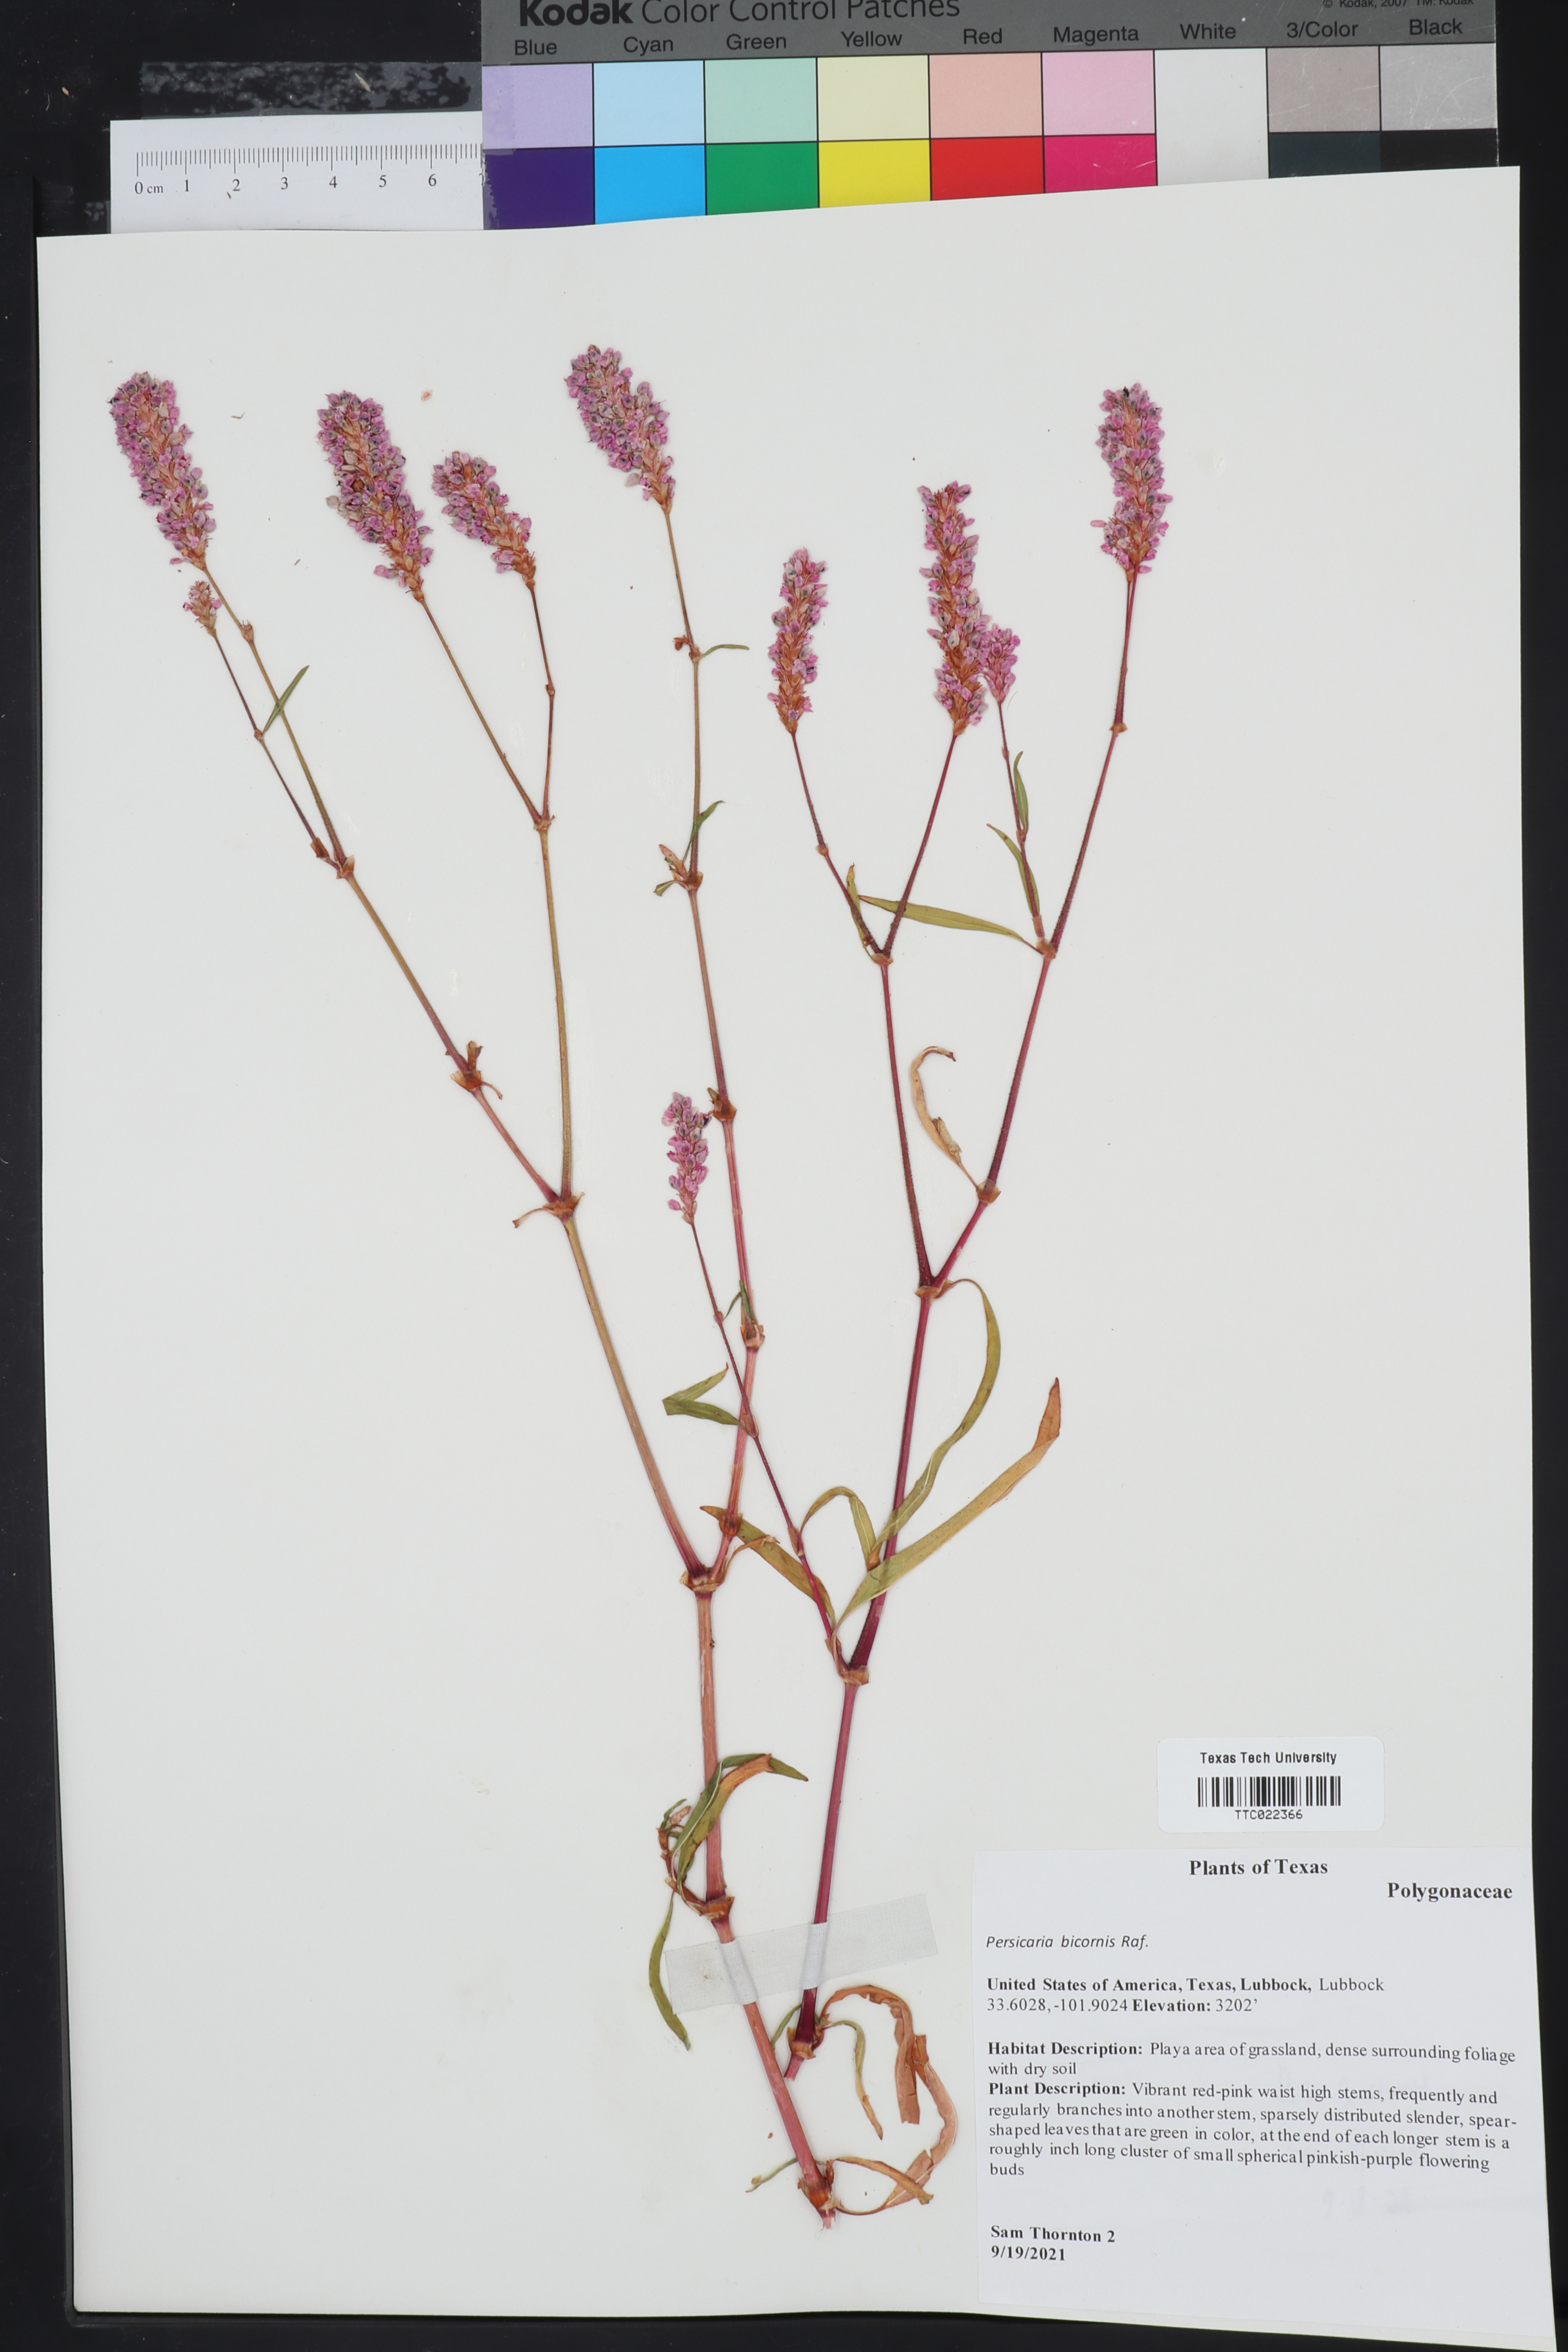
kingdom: Plantae
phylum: Tracheophyta
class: Magnoliopsida
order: Caryophyllales
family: Polygonaceae
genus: Persicaria
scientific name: Persicaria bicornis
